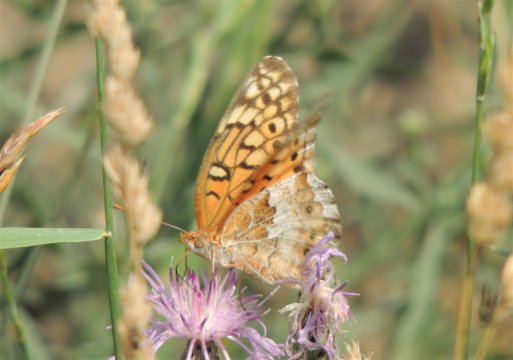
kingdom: Animalia
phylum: Arthropoda
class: Insecta
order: Lepidoptera
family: Nymphalidae
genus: Euptoieta
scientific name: Euptoieta claudia
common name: Variegated Fritillary
